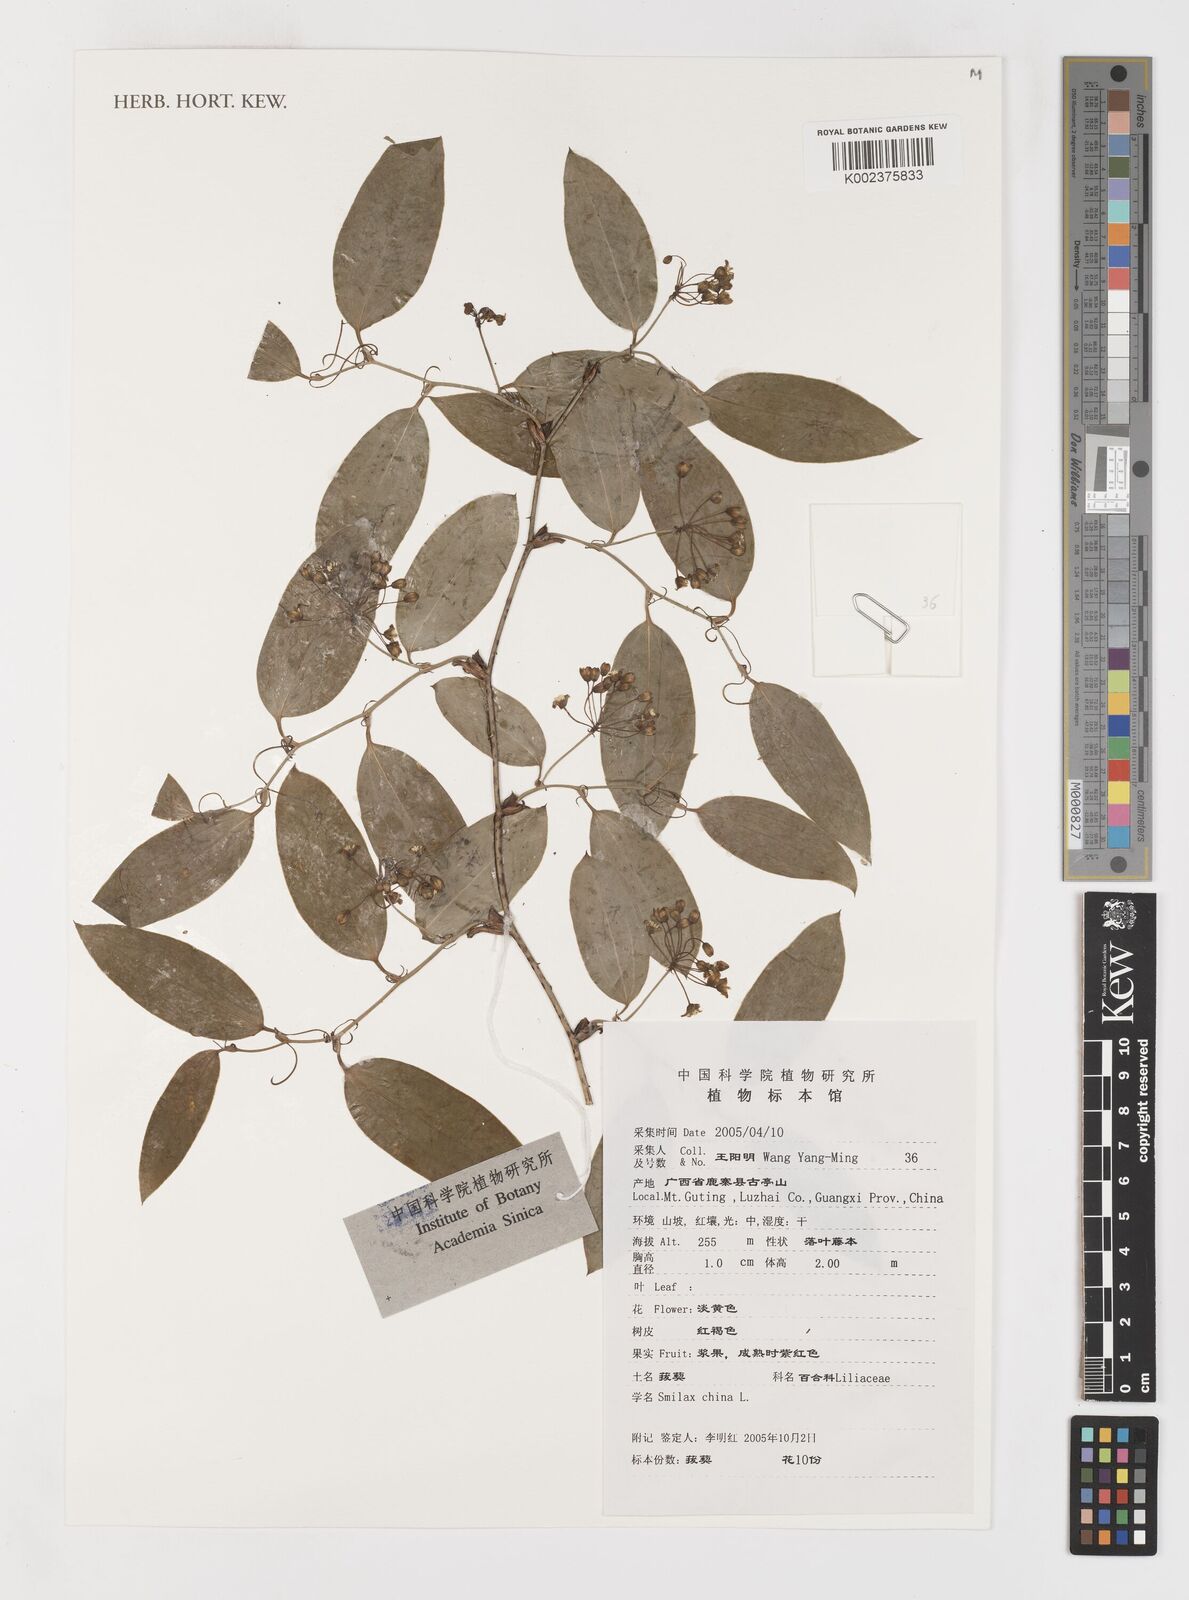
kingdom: Plantae
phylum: Tracheophyta
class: Liliopsida
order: Liliales
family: Smilacaceae
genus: Smilax
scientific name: Smilax china
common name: Chinaroot
